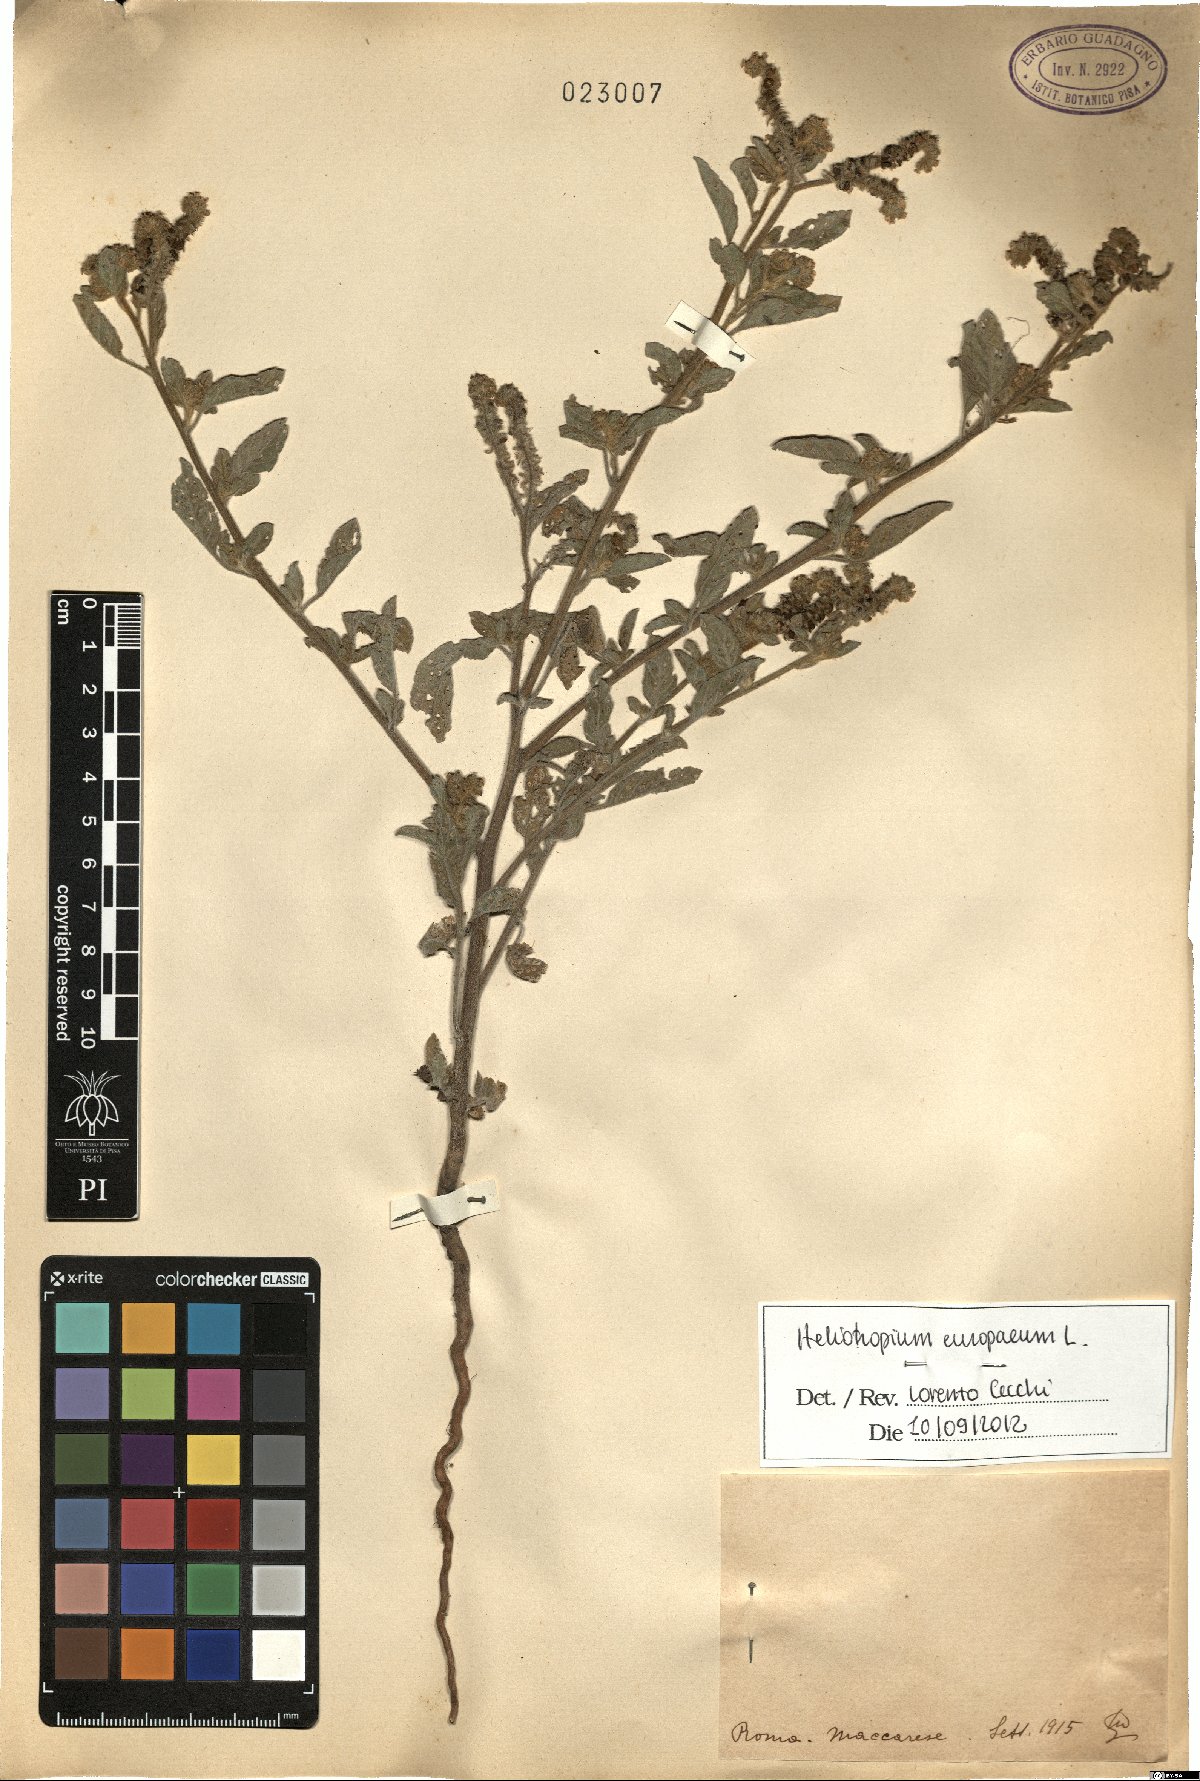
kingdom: Plantae
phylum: Tracheophyta
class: Magnoliopsida
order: Boraginales
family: Heliotropiaceae
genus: Heliotropium
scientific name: Heliotropium europaeum
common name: European heliotrope
